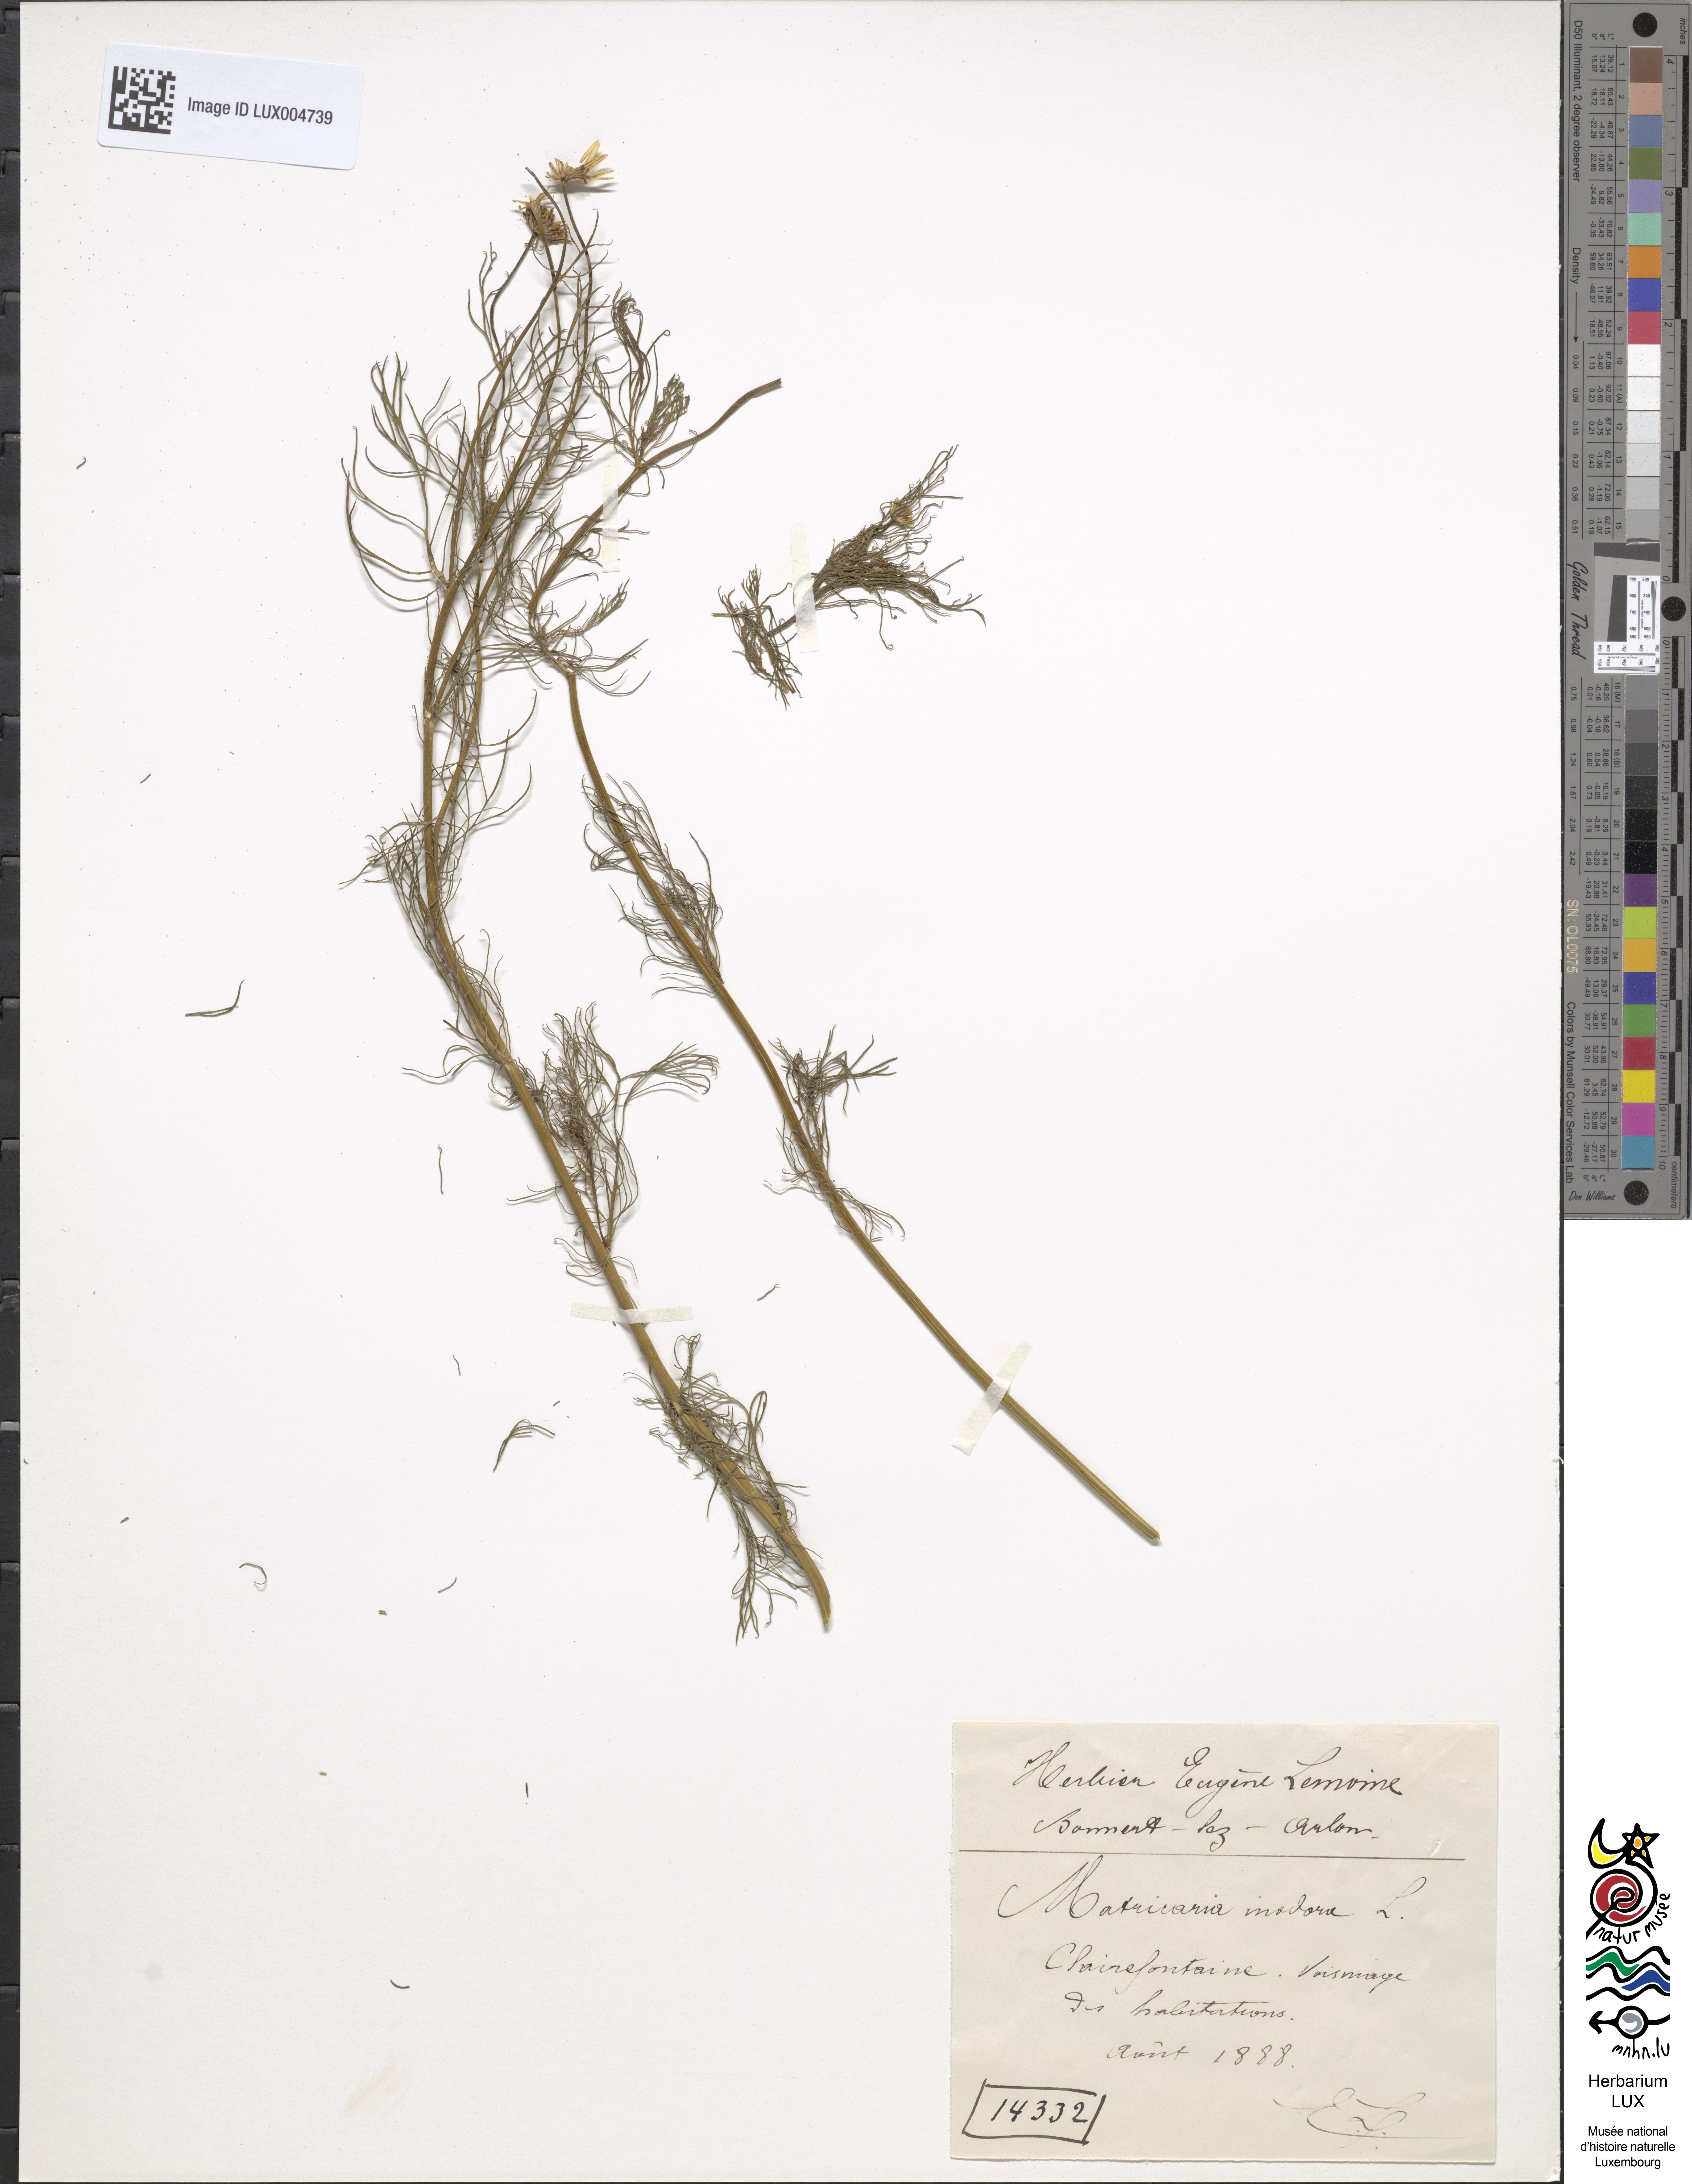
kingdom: Plantae
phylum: Tracheophyta
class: Magnoliopsida
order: Asterales
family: Asteraceae
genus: Tripleurospermum
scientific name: Tripleurospermum inodorum
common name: Scentless mayweed
